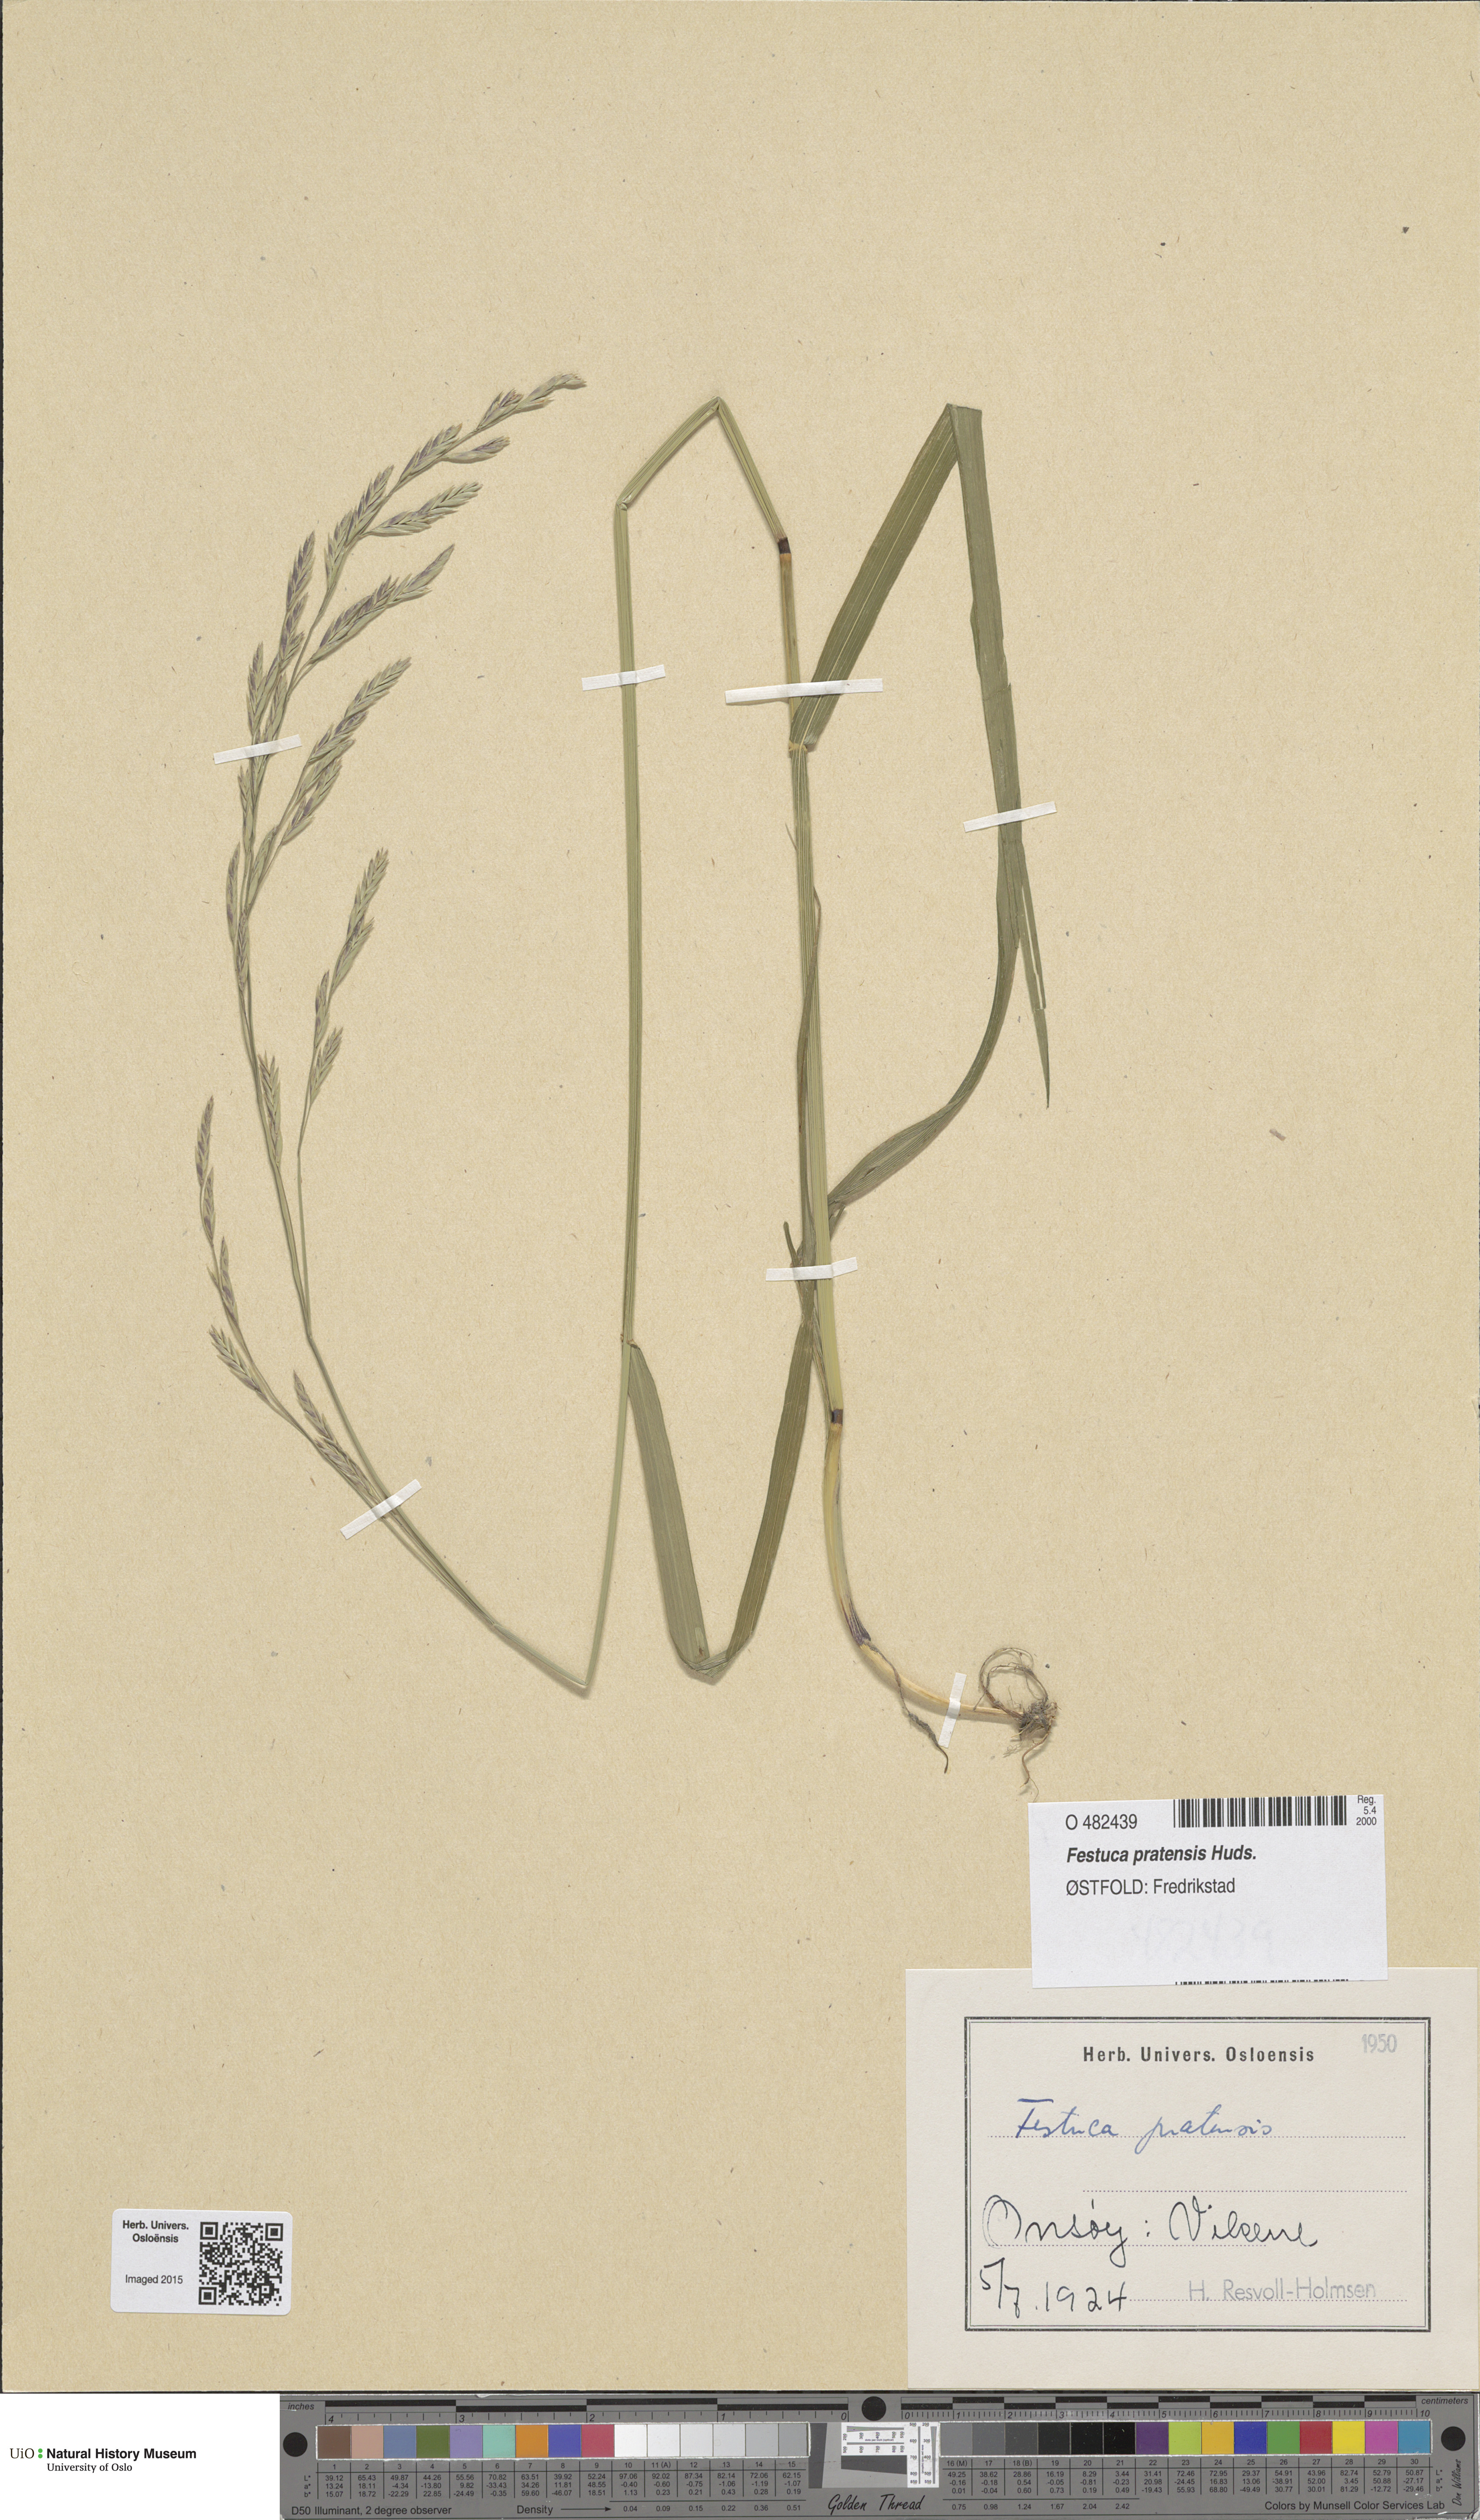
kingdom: Plantae
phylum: Tracheophyta
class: Liliopsida
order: Poales
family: Poaceae
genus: Lolium
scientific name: Lolium pratense
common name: Dover grass
